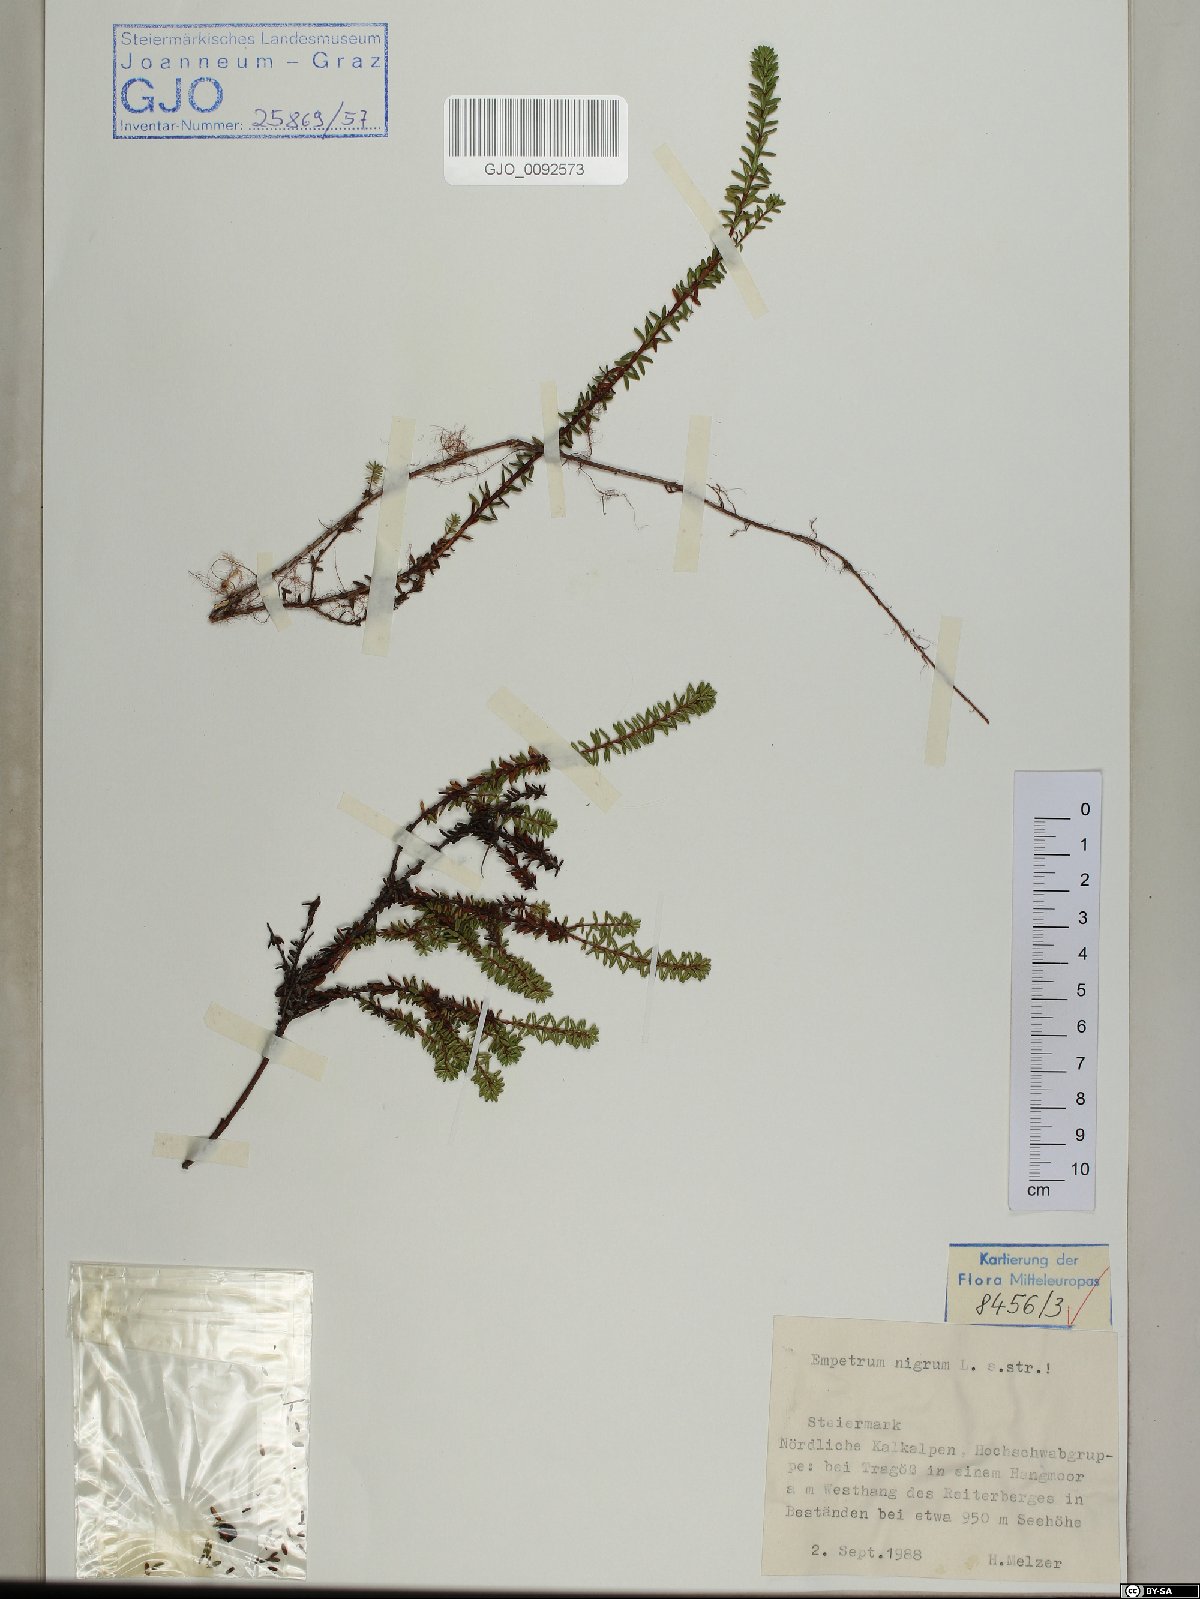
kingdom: Plantae
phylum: Tracheophyta
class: Magnoliopsida
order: Ericales
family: Ericaceae
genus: Empetrum
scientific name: Empetrum nigrum
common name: Black crowberry
